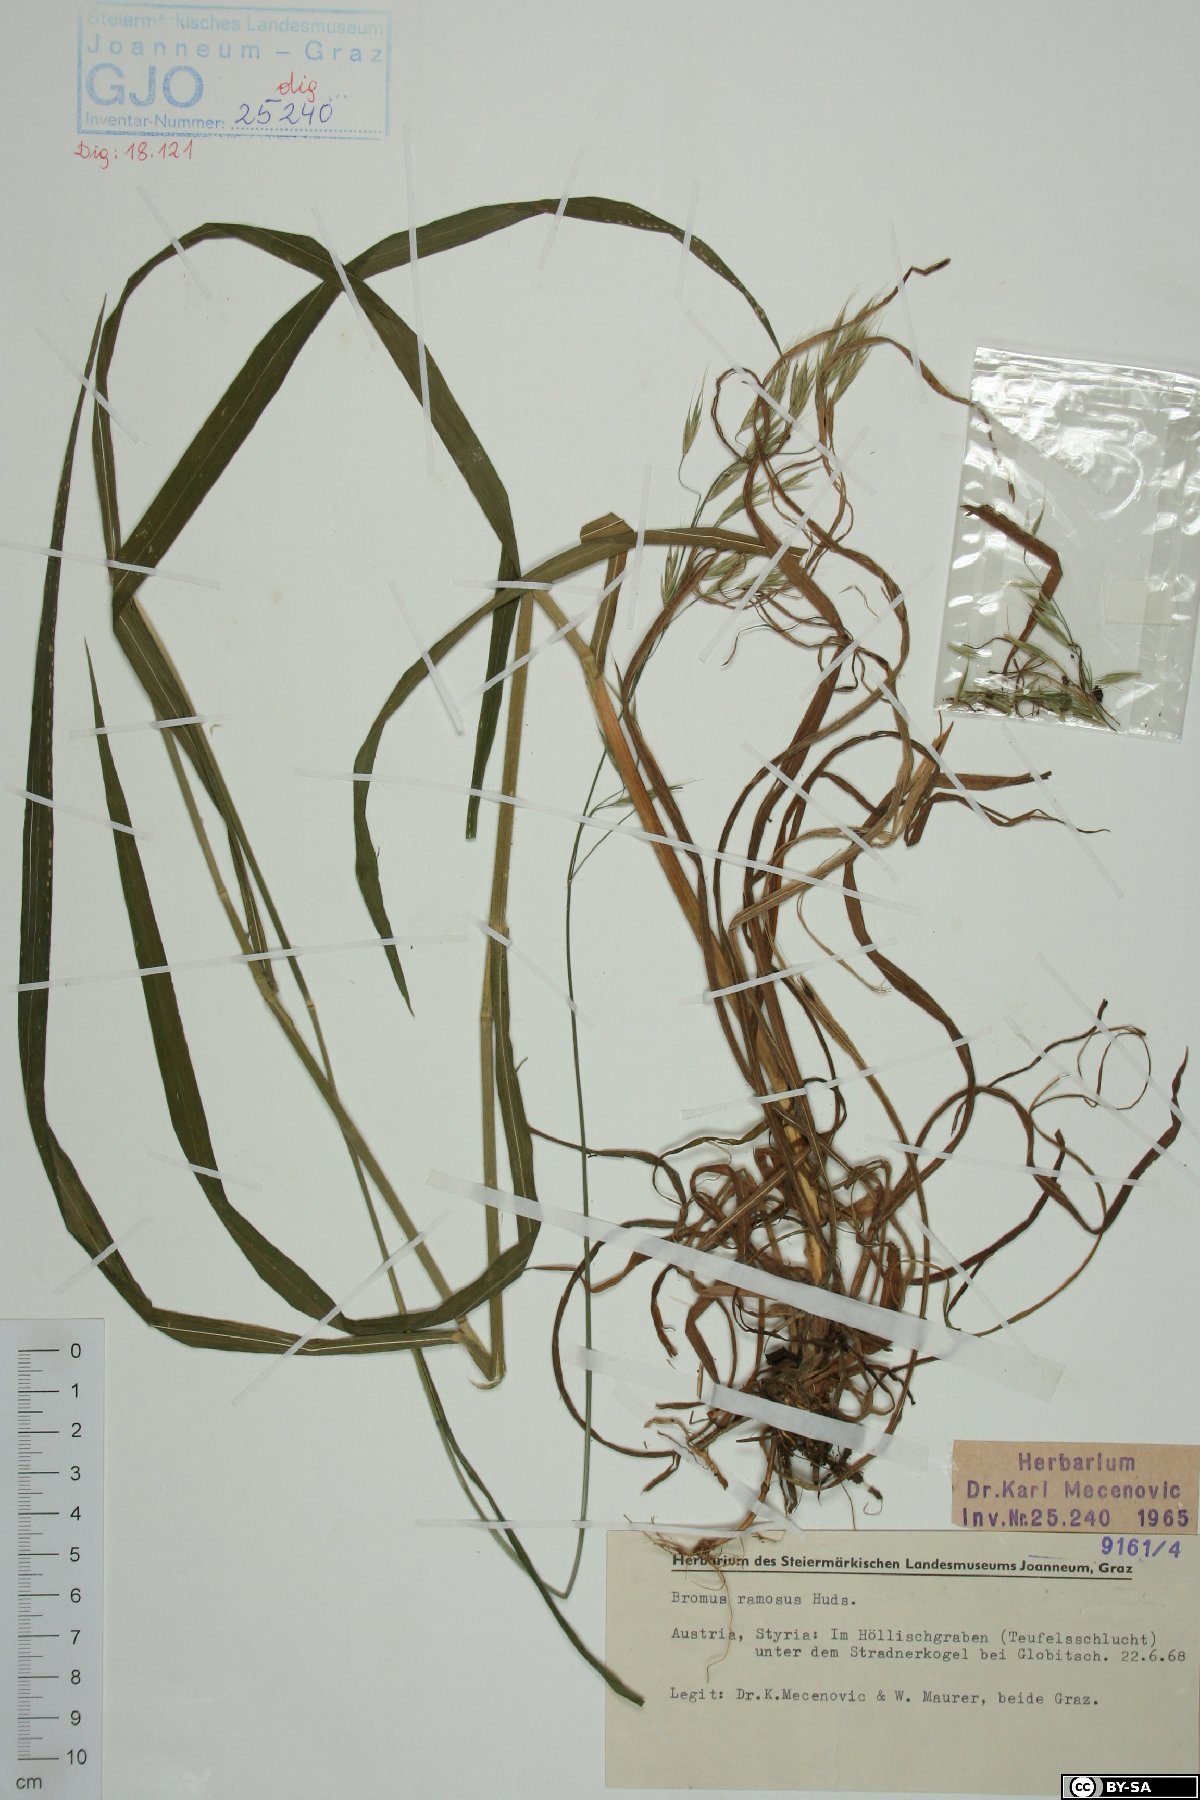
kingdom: Plantae
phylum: Tracheophyta
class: Liliopsida
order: Poales
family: Poaceae
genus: Bromus
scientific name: Bromus ramosus
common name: Hairy brome
